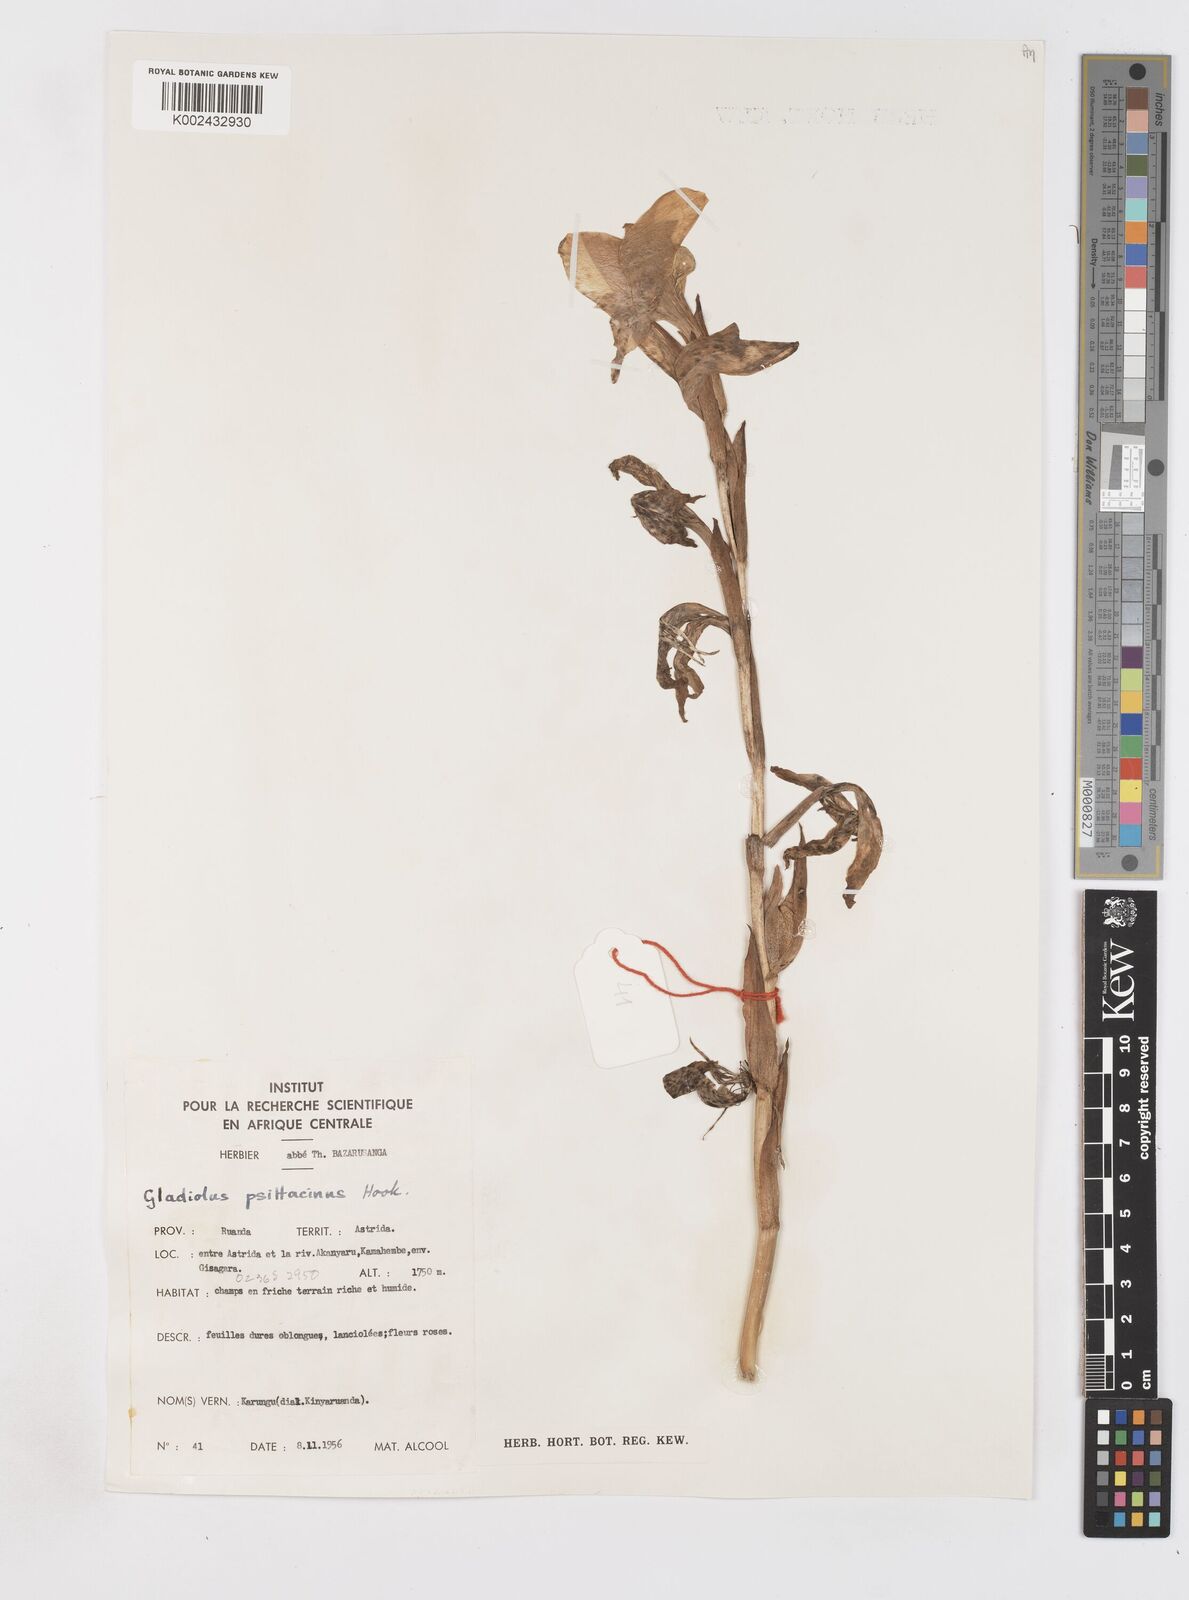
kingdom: Plantae
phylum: Tracheophyta
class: Liliopsida
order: Asparagales
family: Iridaceae
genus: Gladiolus
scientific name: Gladiolus dalenii
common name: Cornflag
